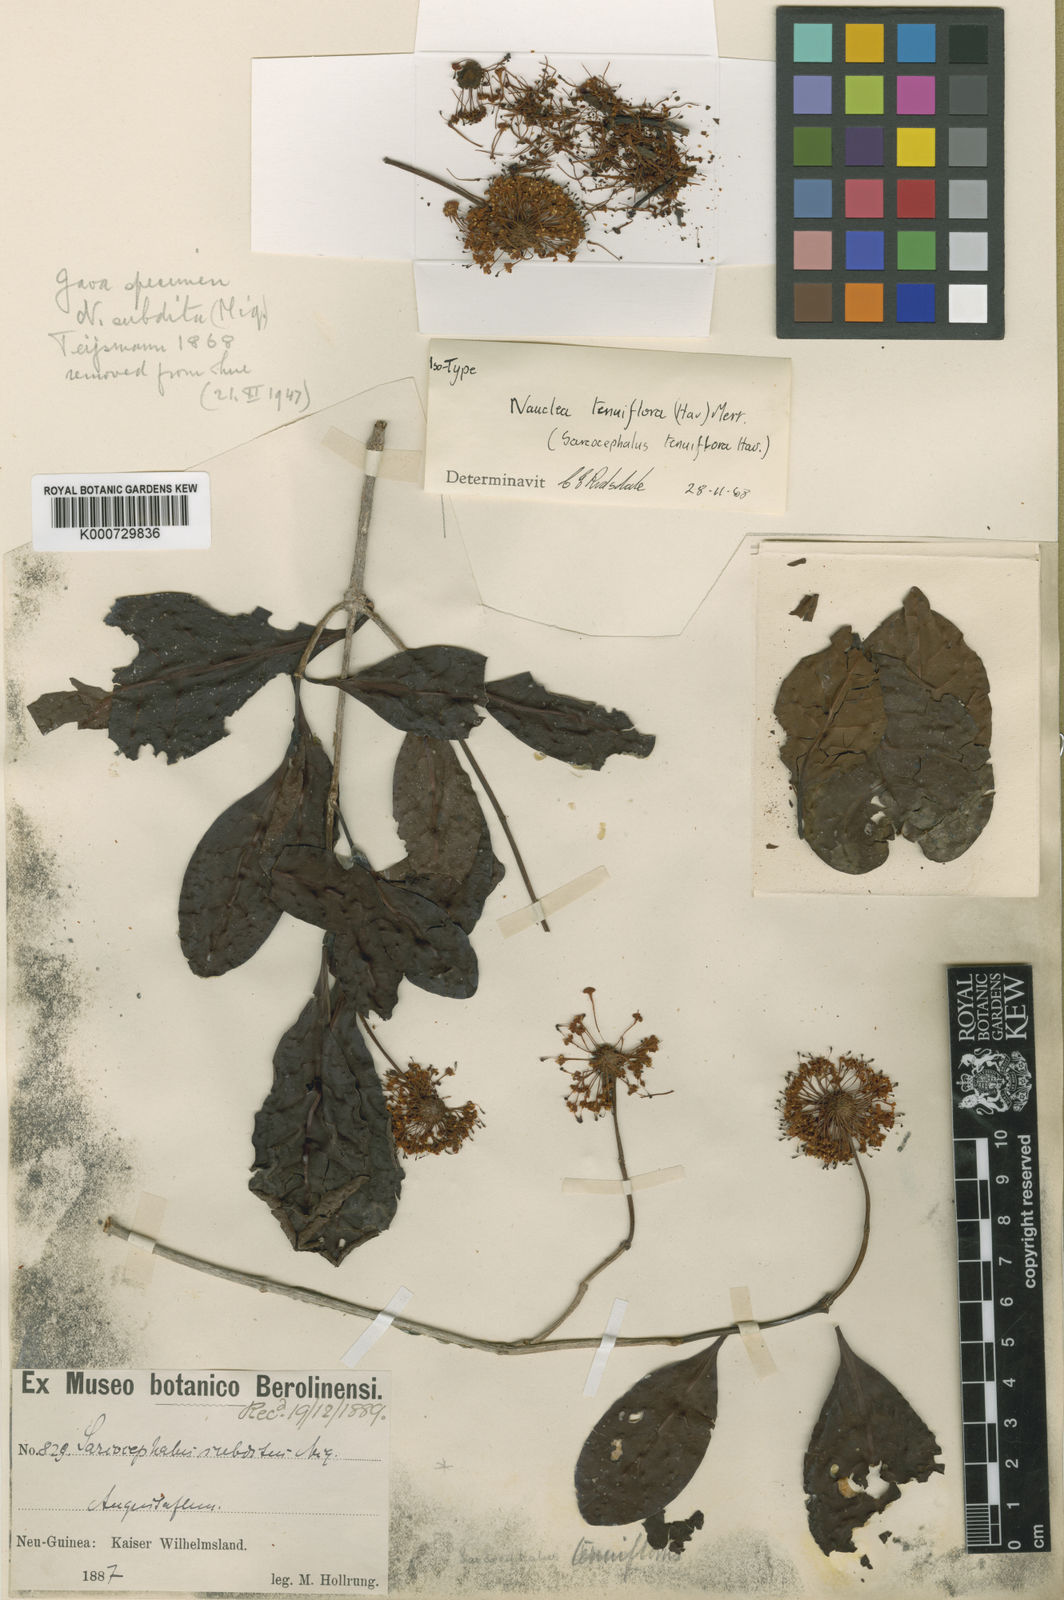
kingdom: Plantae
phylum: Tracheophyta
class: Magnoliopsida
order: Gentianales
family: Rubiaceae
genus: Nauclea
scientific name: Nauclea tenuiflora
